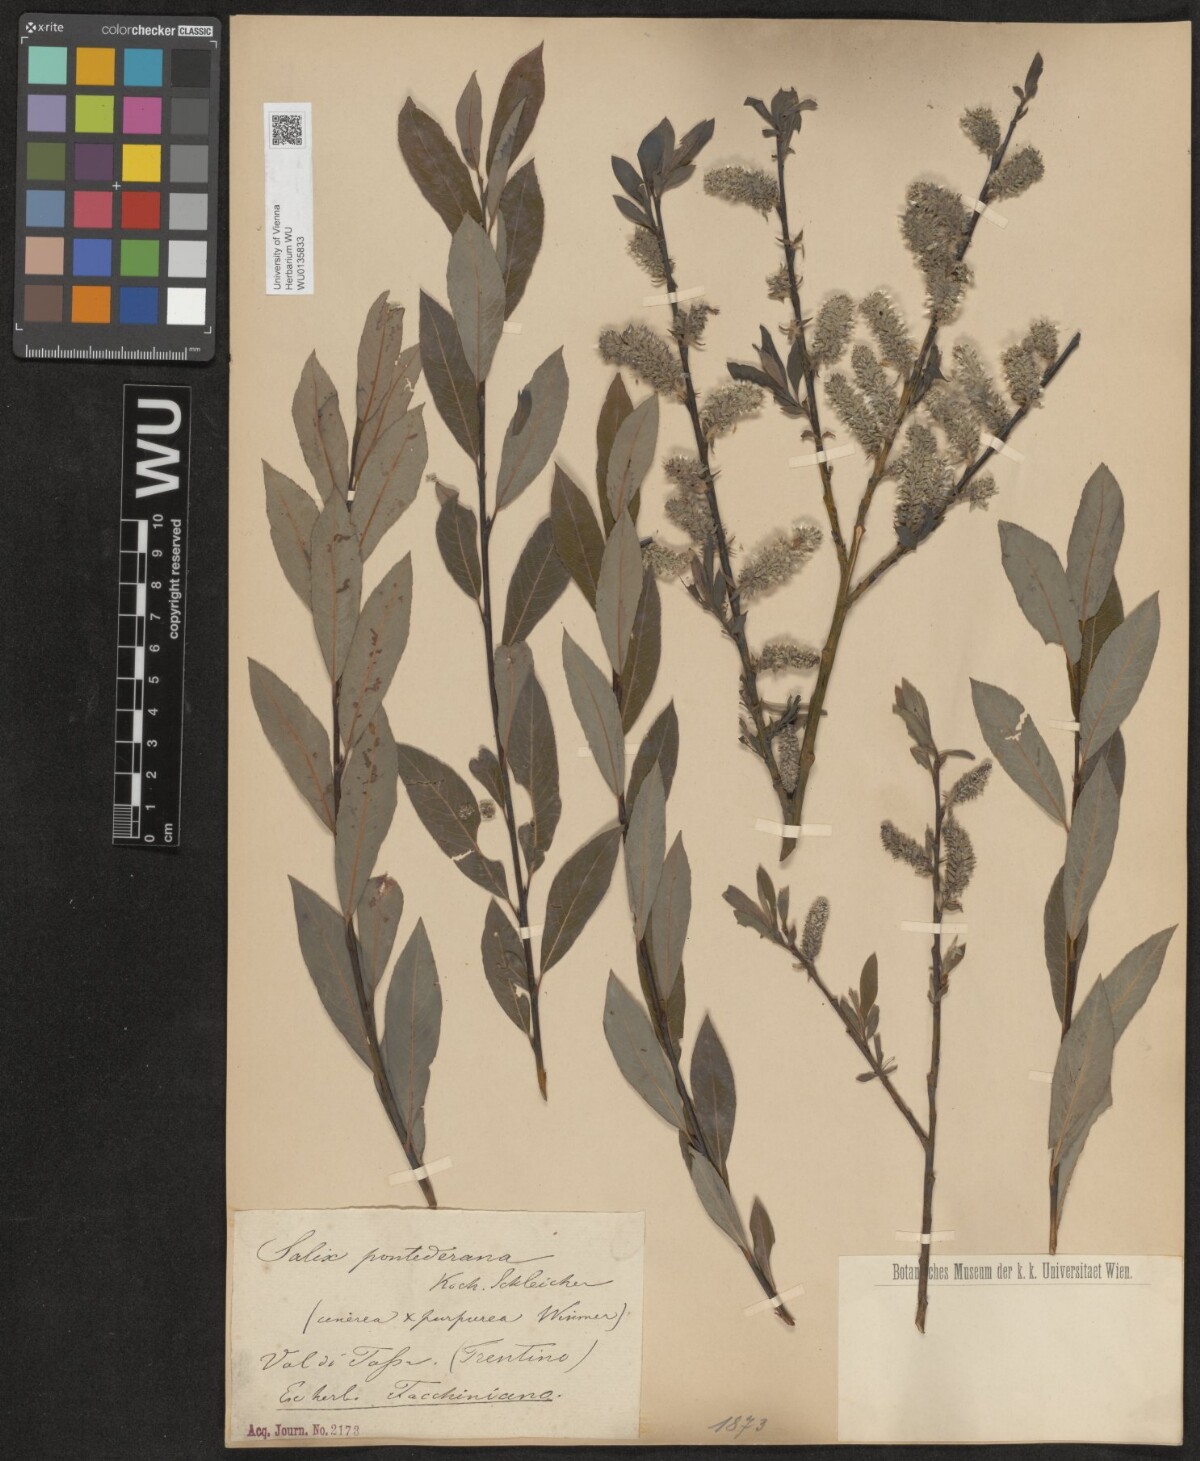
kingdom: Plantae
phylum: Tracheophyta
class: Magnoliopsida
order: Malpighiales
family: Salicaceae
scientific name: Salicaceae
